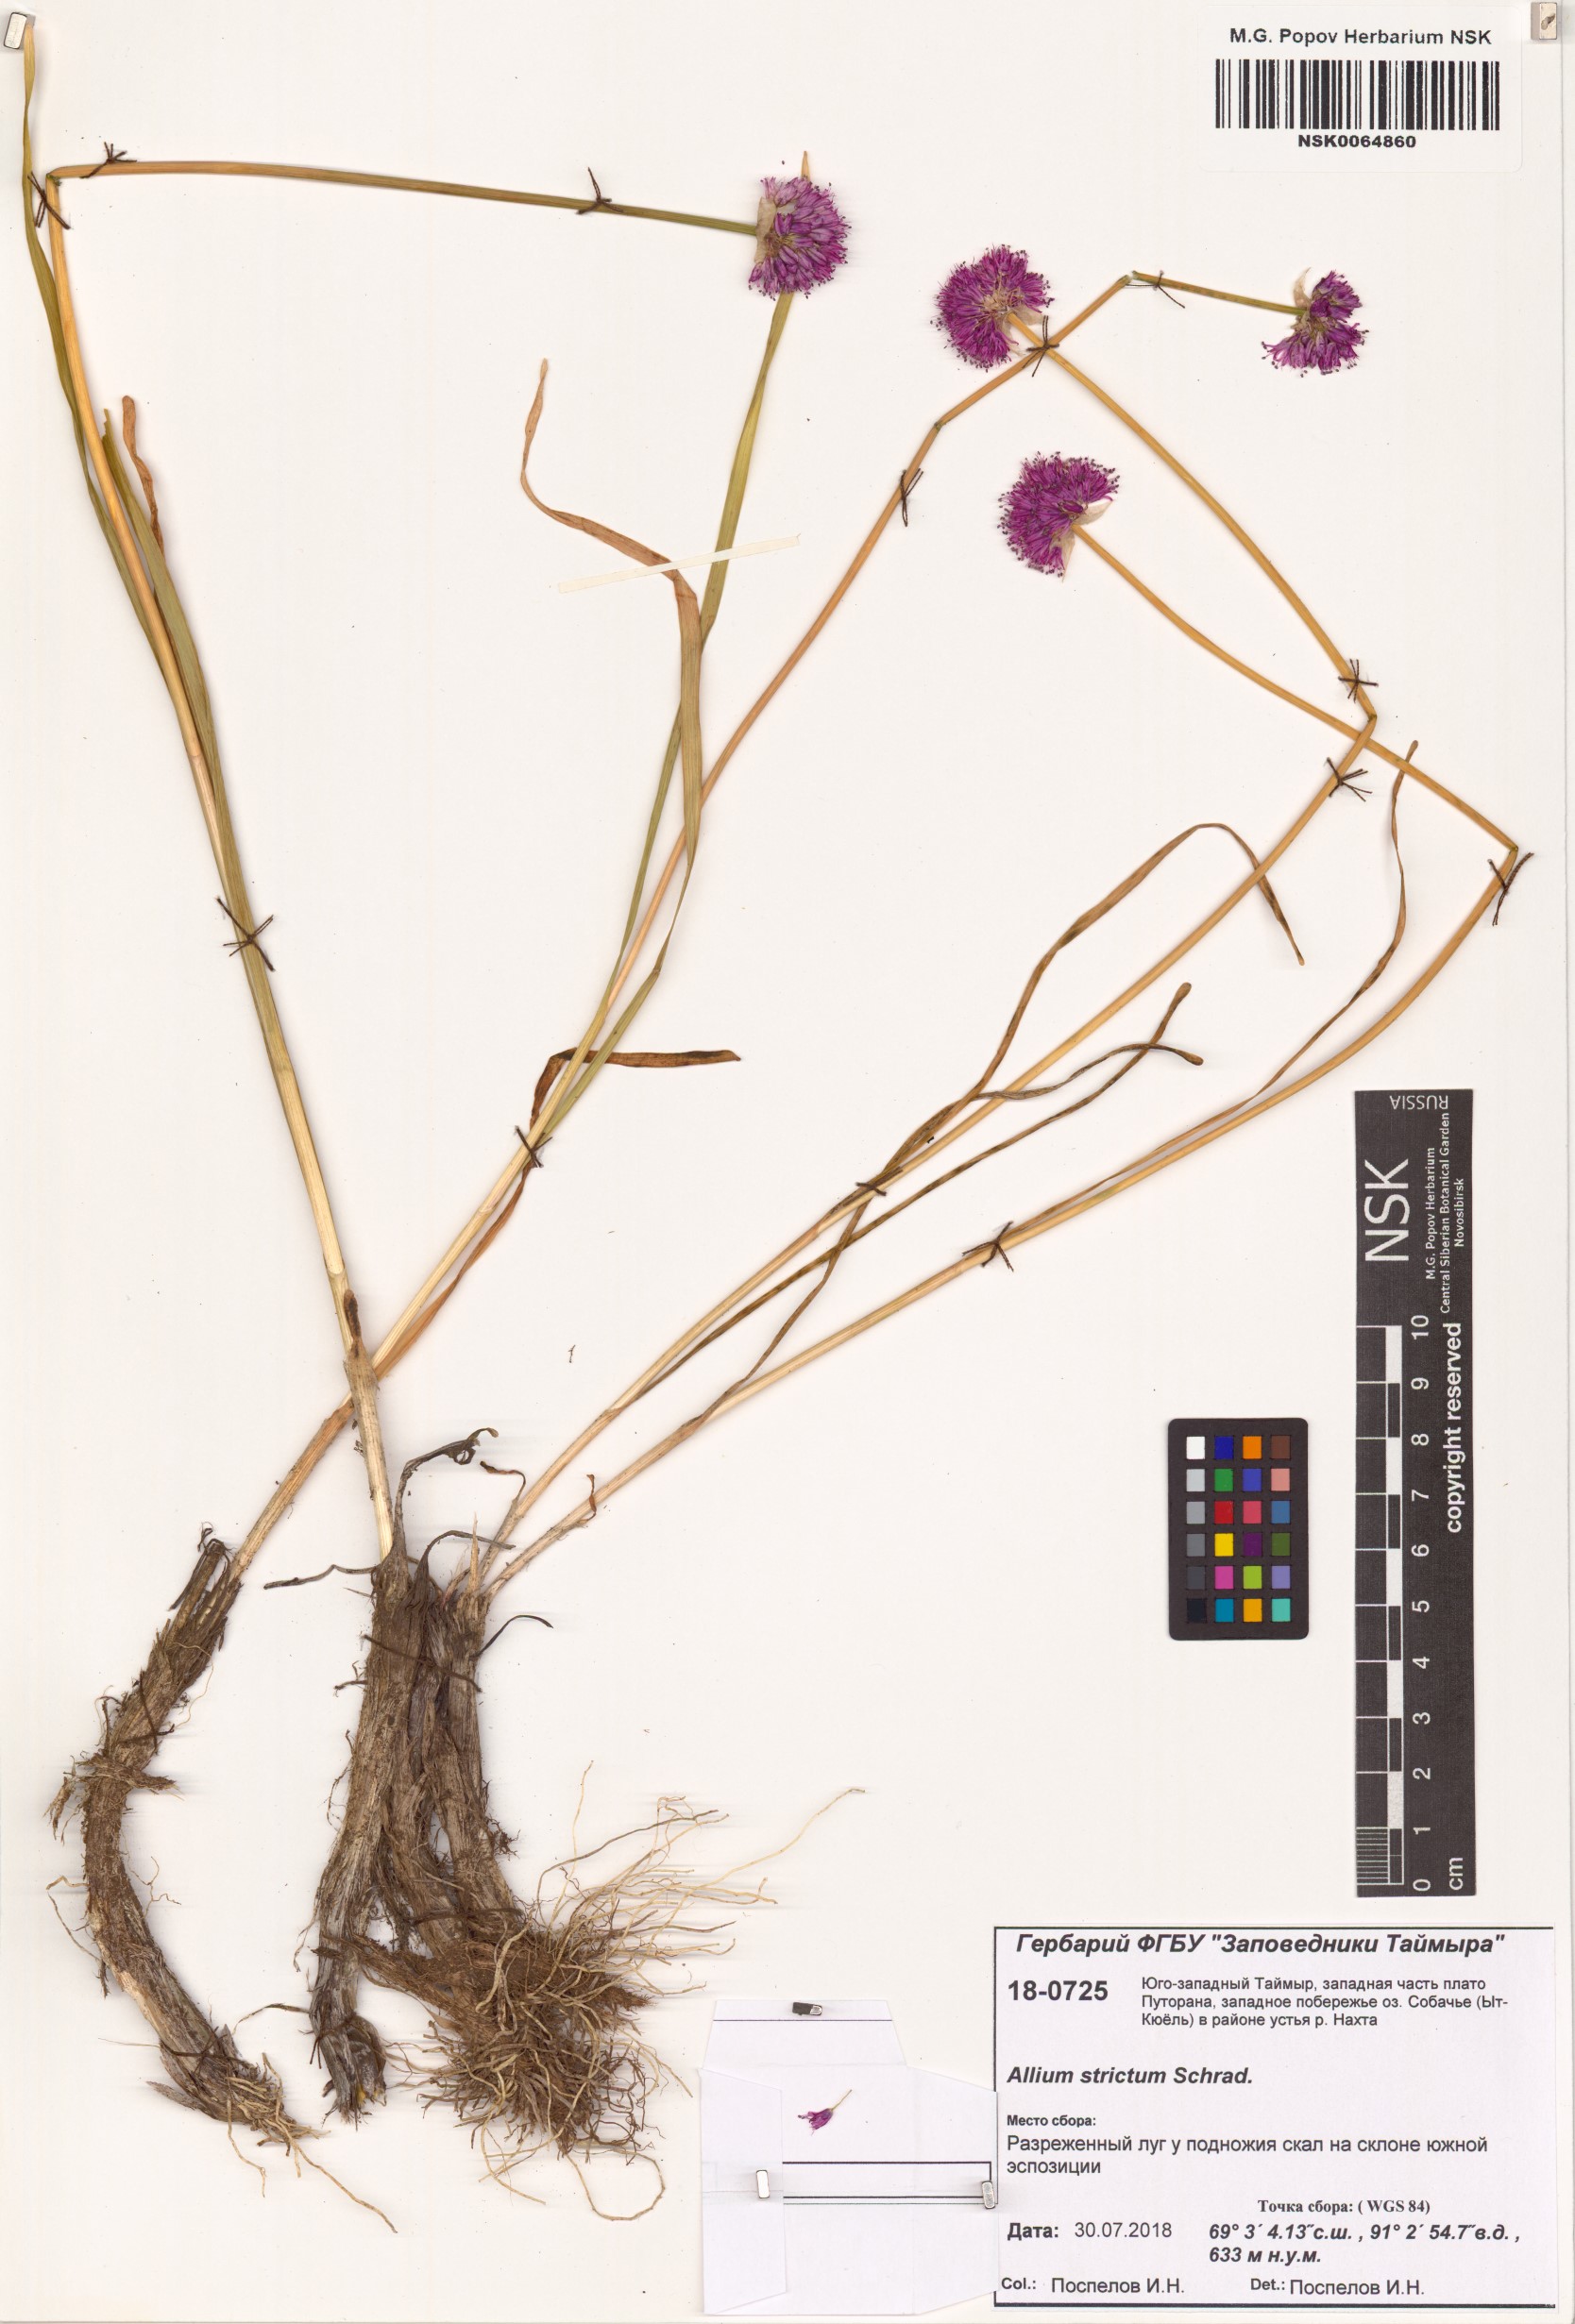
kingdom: Plantae
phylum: Tracheophyta
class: Liliopsida
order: Asparagales
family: Amaryllidaceae
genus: Allium
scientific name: Allium strictum
